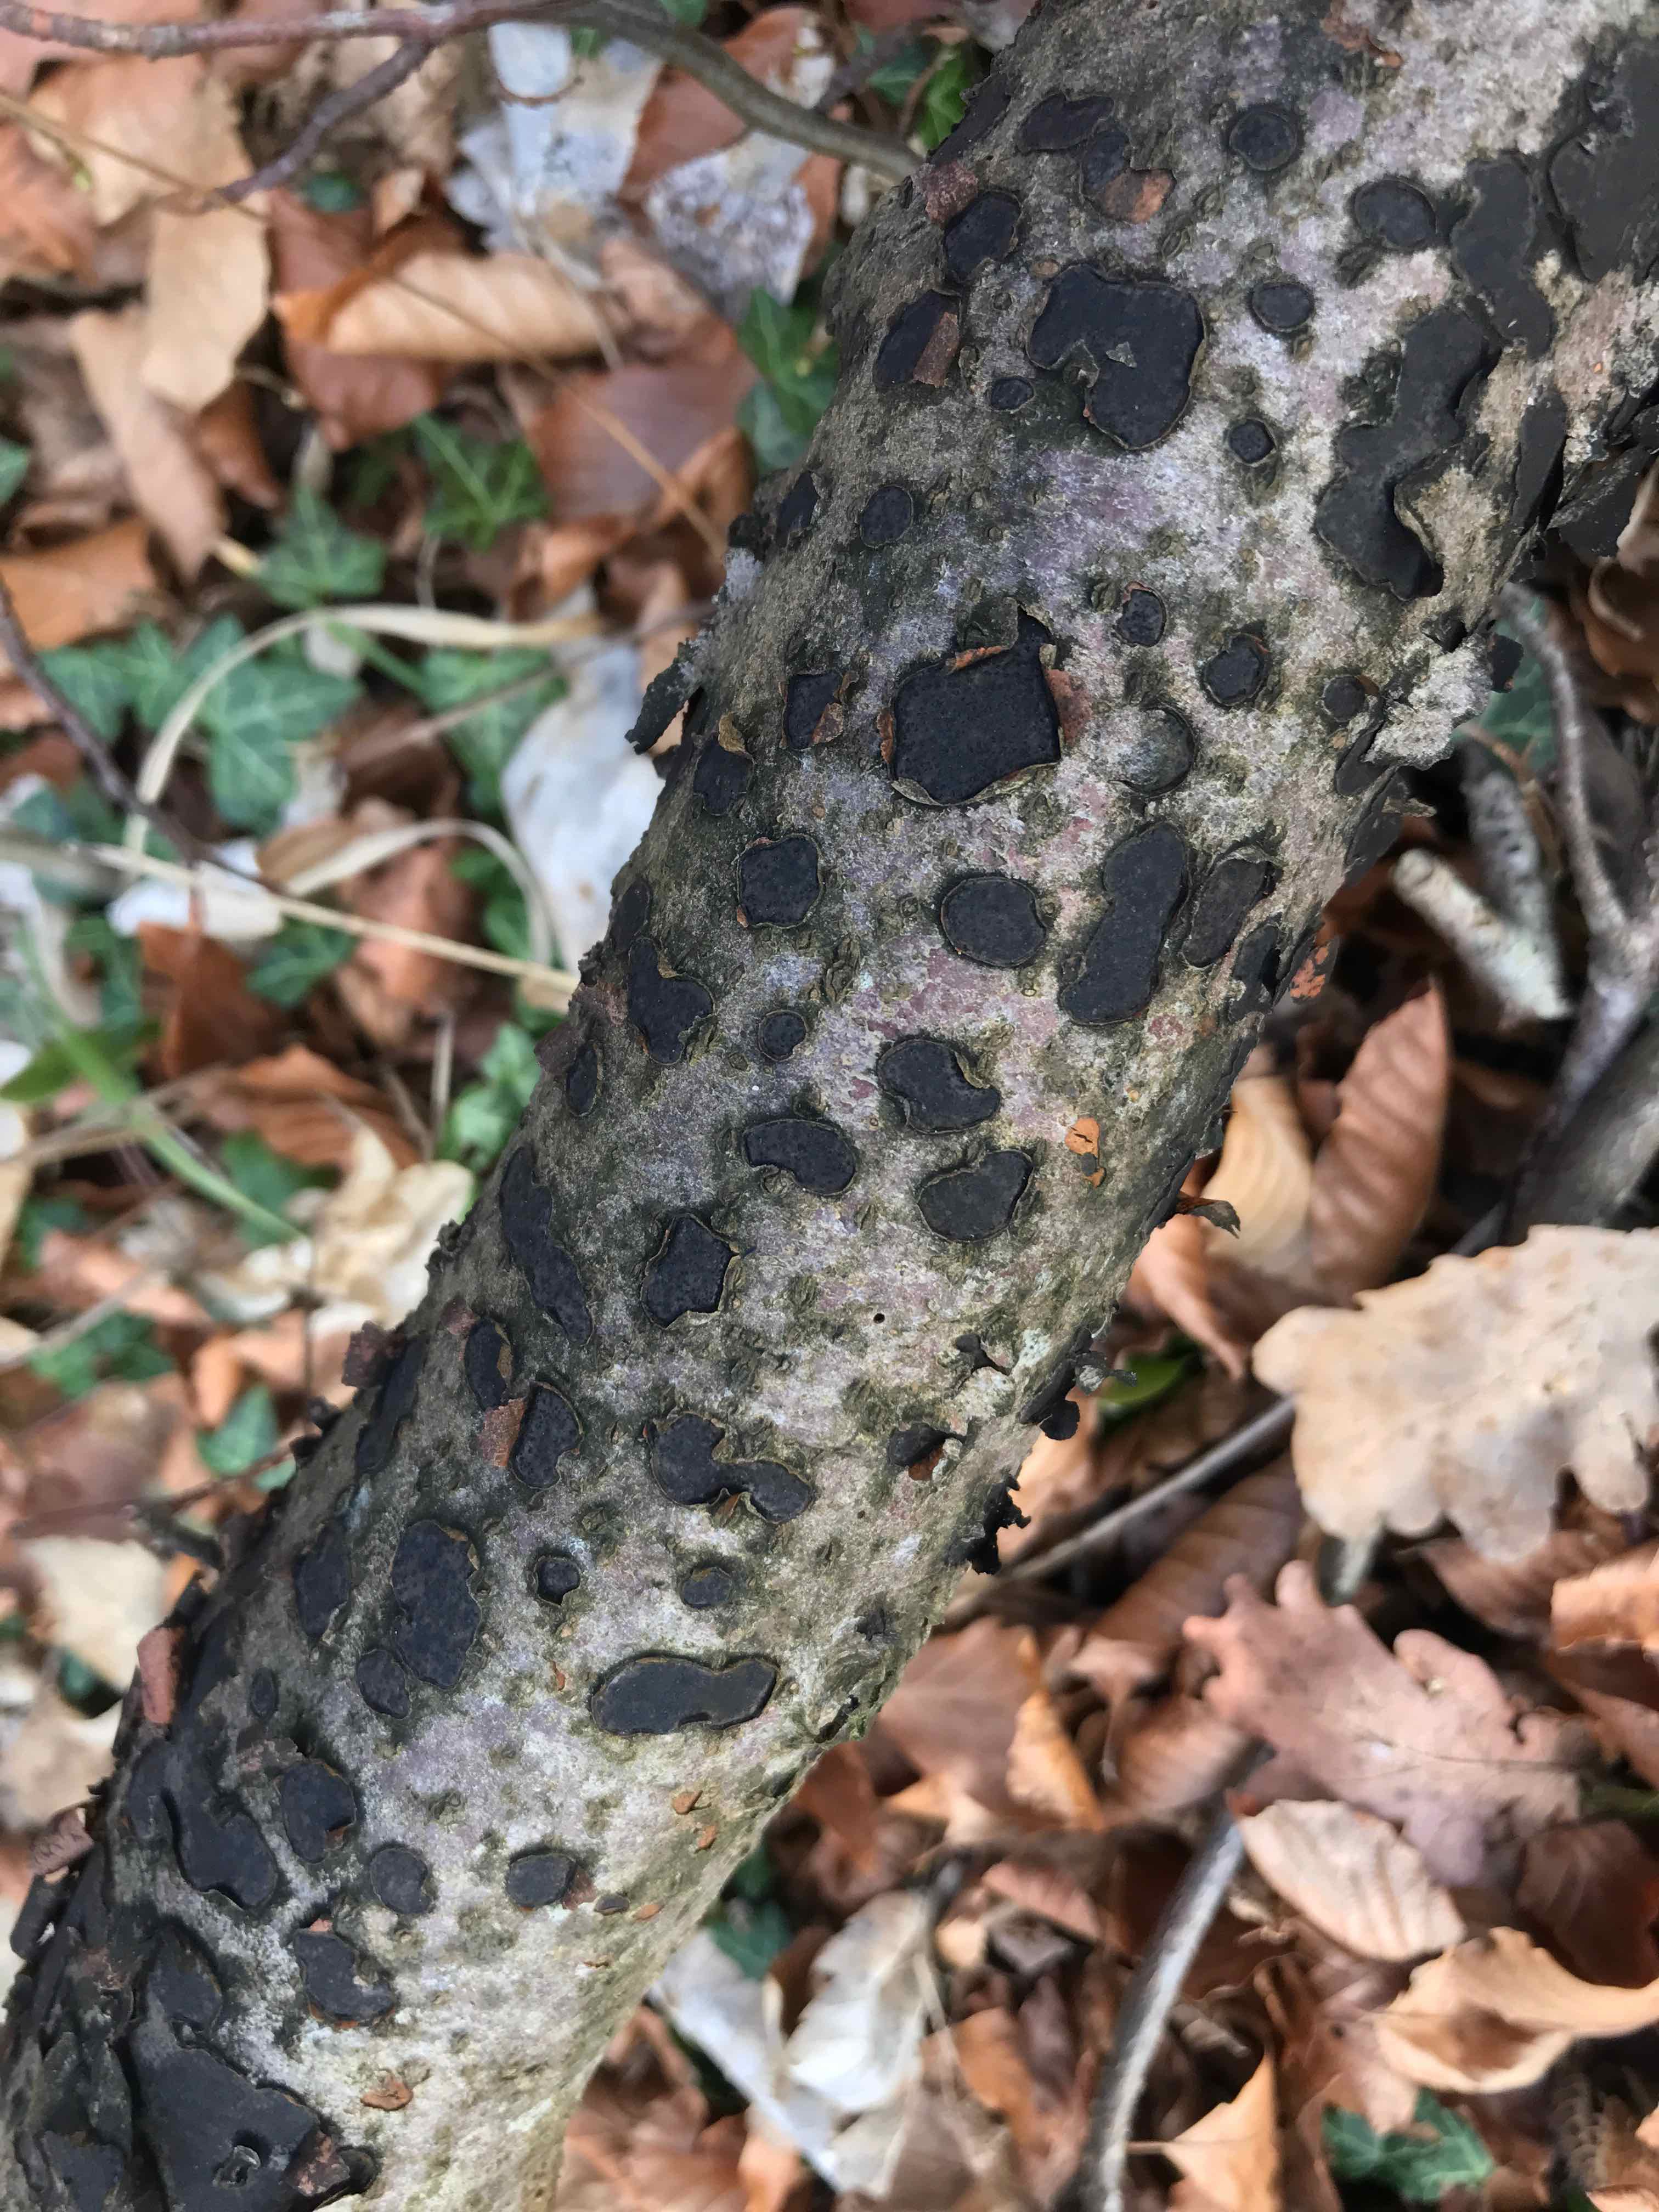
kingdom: Fungi
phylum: Ascomycota
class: Sordariomycetes
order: Xylariales
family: Diatrypaceae
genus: Diatrype
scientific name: Diatrype disciformis
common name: kant-kulskorpe
